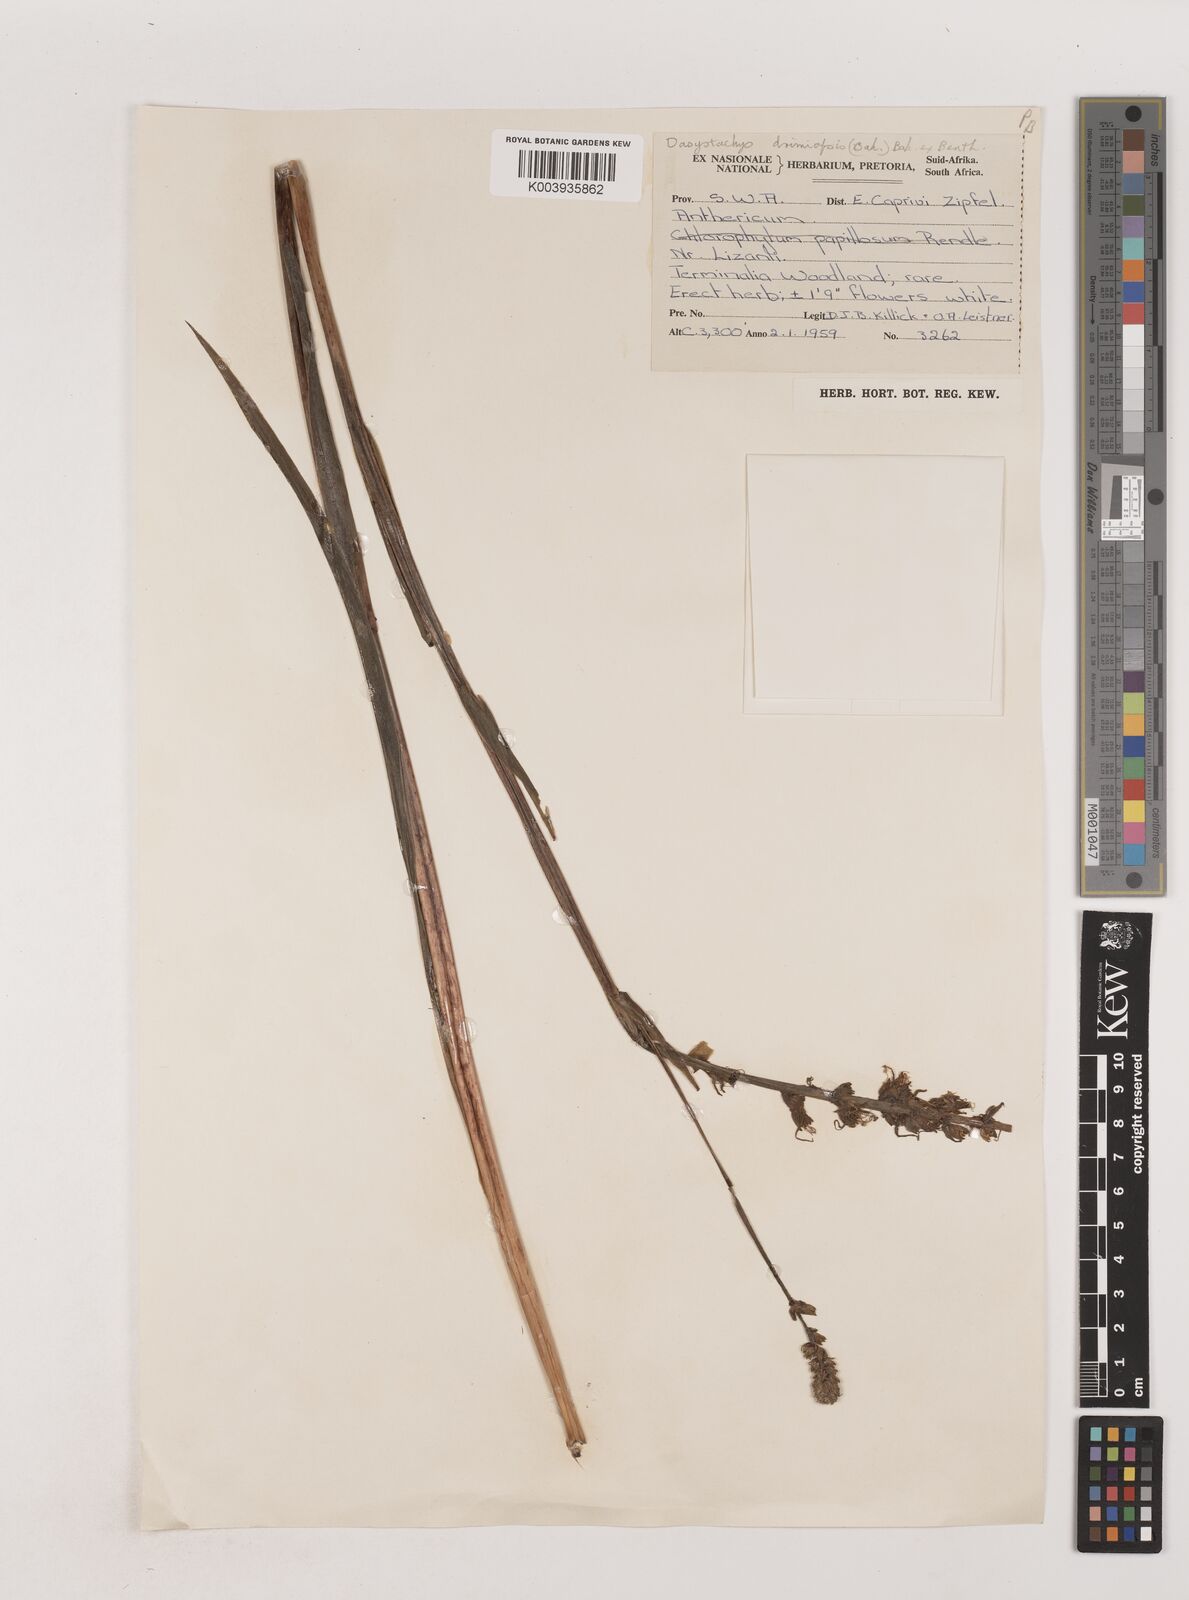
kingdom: Plantae
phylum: Tracheophyta
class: Liliopsida
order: Asparagales
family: Asparagaceae
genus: Chlorophytum
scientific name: Chlorophytum longifolium
